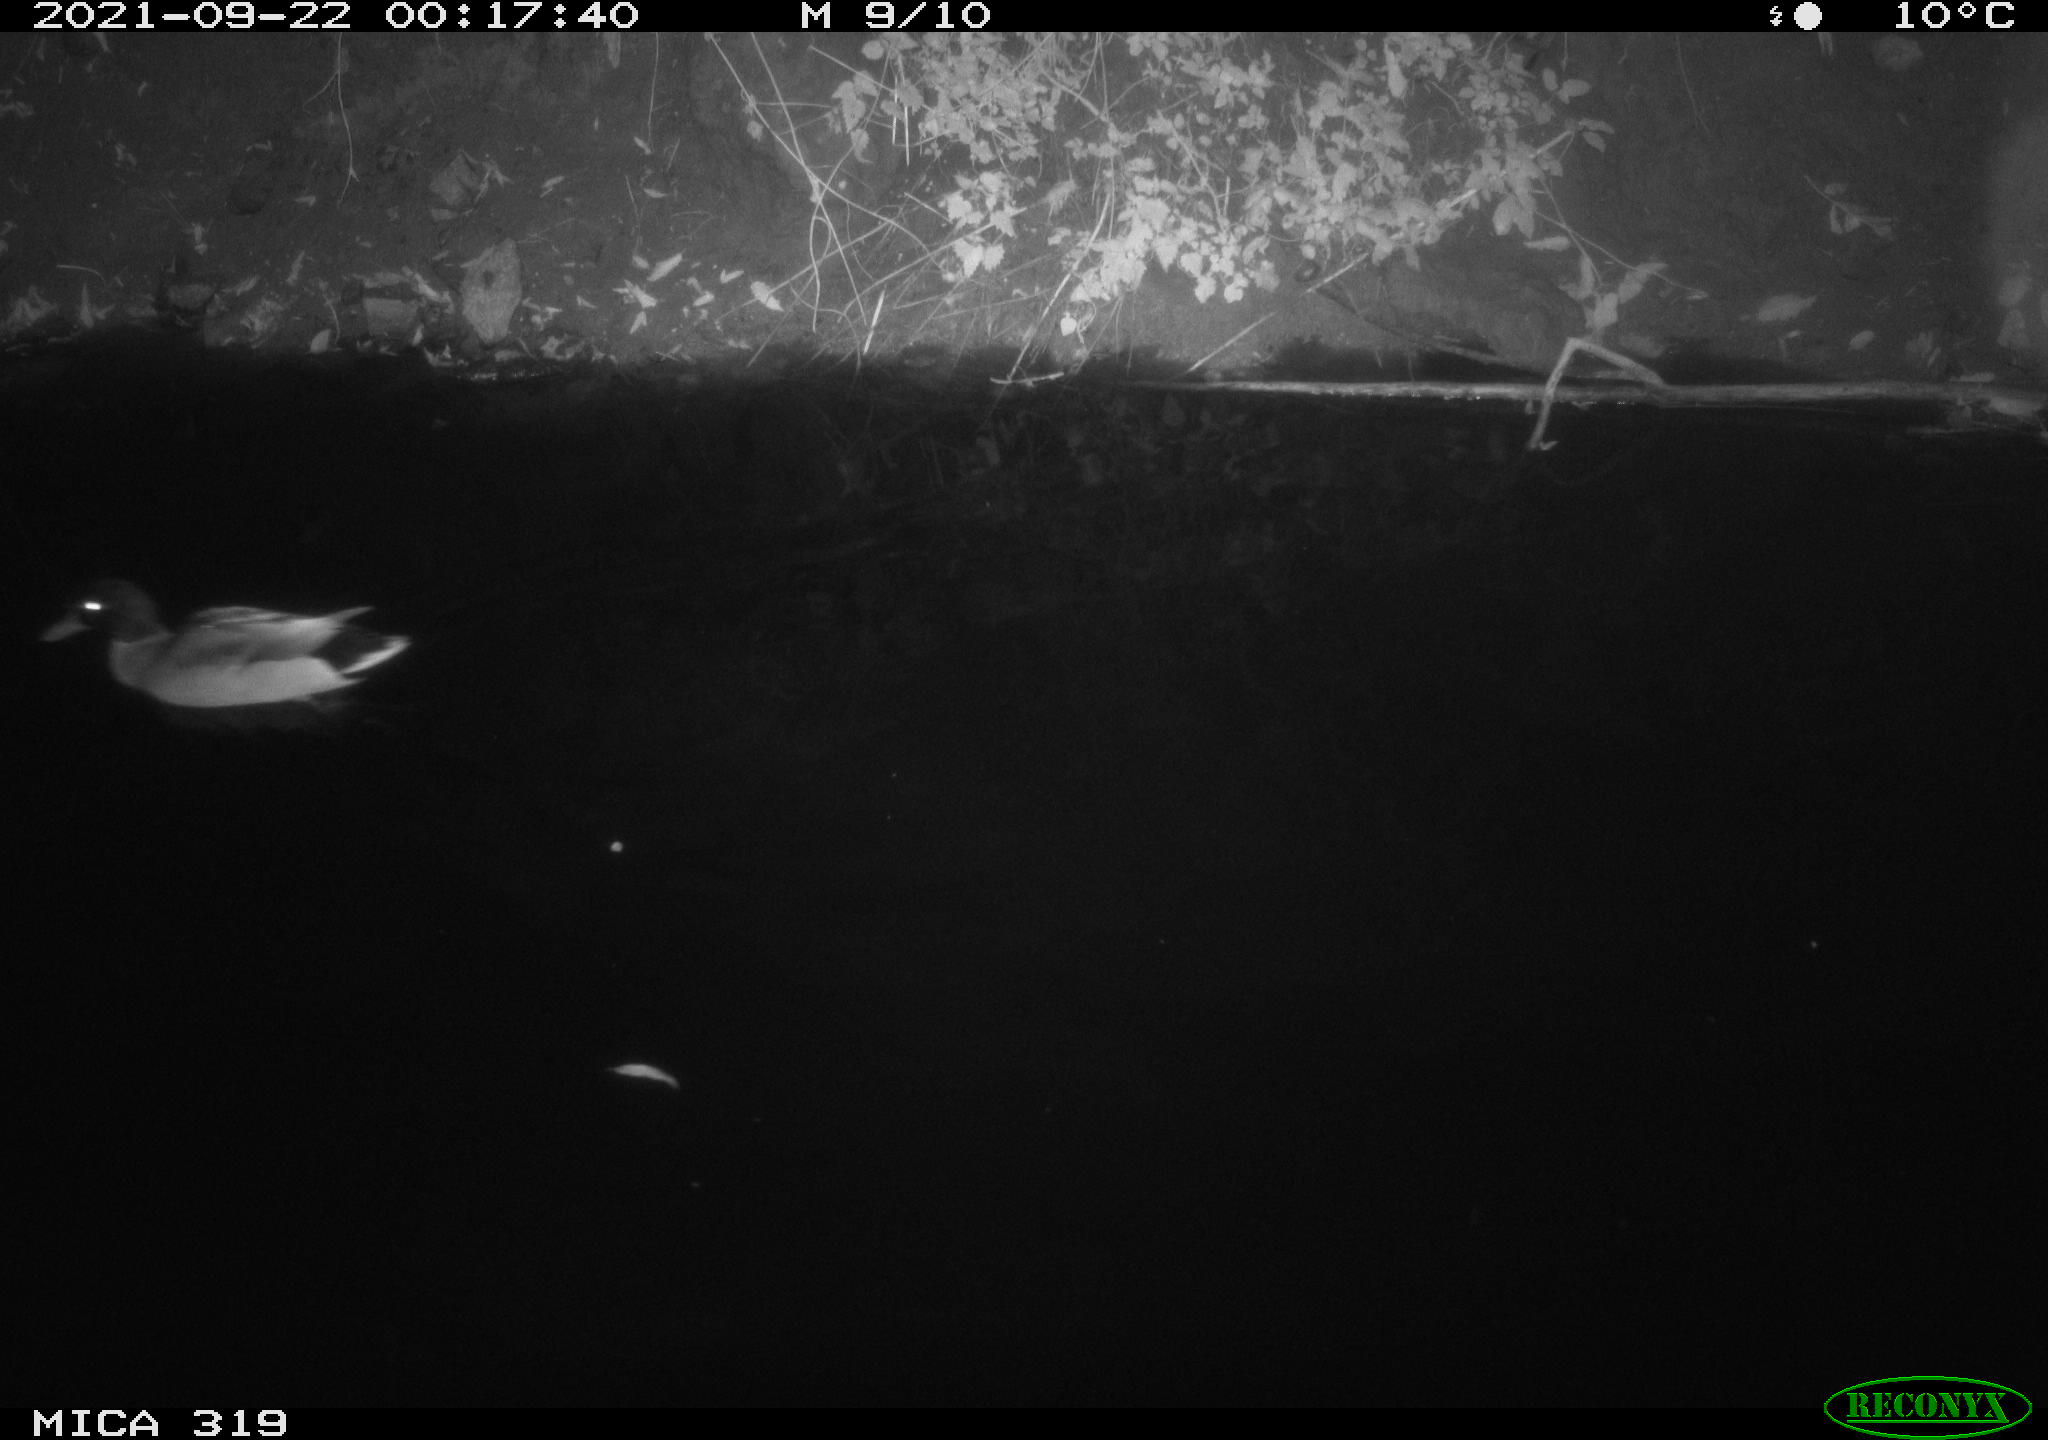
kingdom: Animalia
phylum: Chordata
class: Aves
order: Anseriformes
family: Anatidae
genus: Anas
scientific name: Anas platyrhynchos
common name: Mallard
